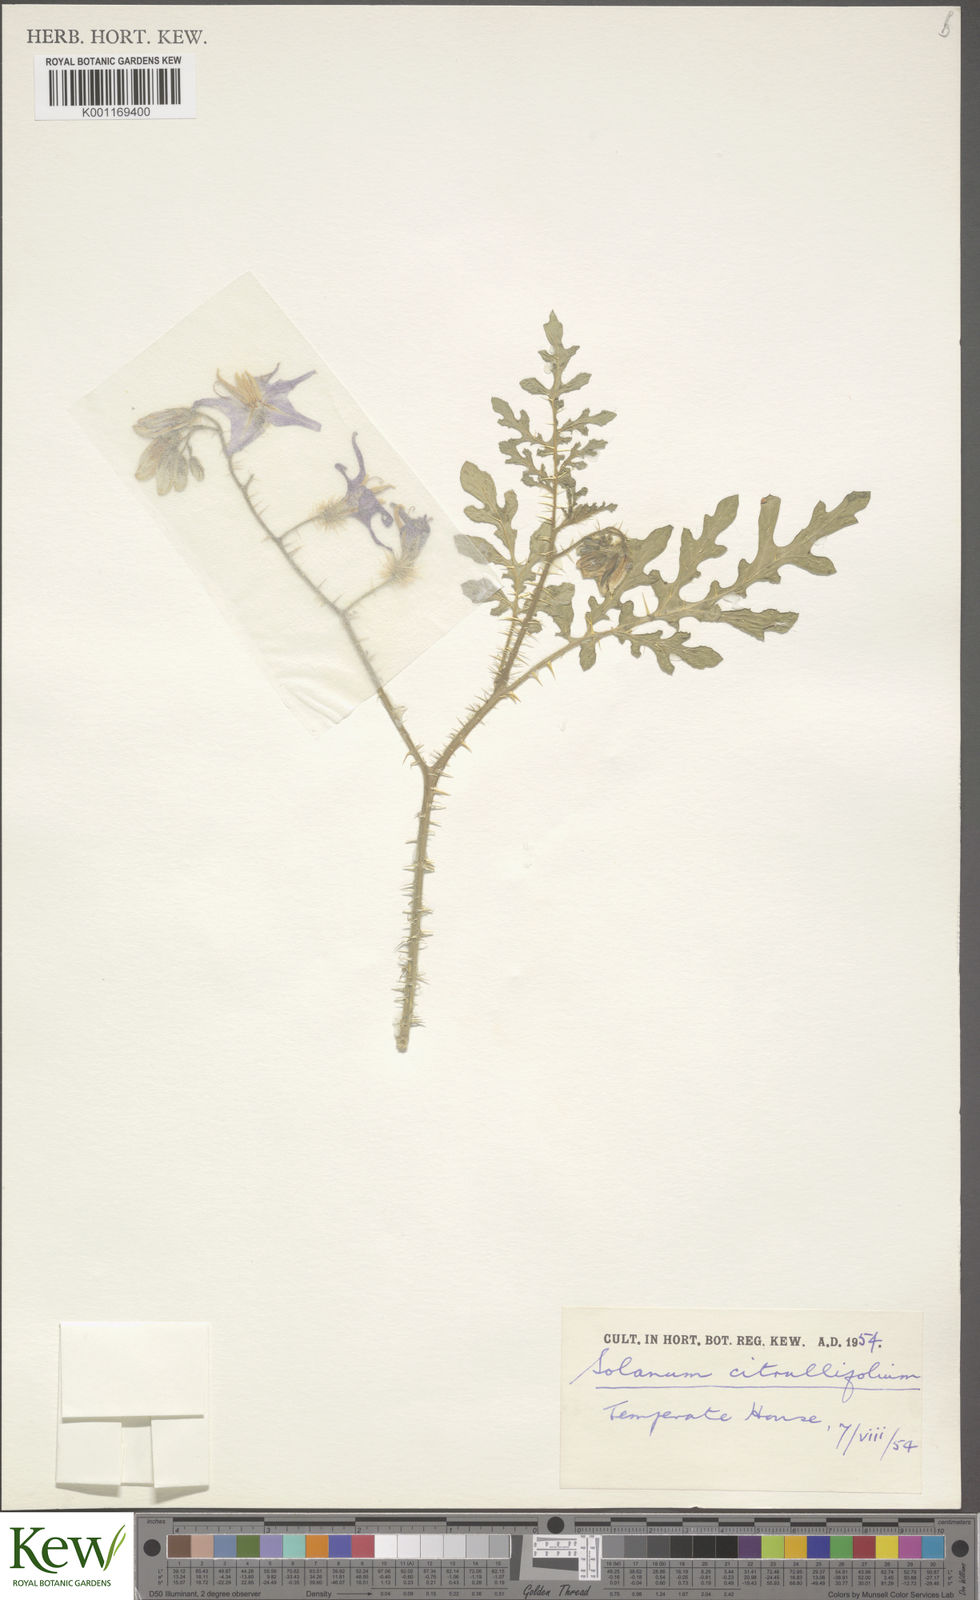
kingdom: Plantae
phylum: Tracheophyta
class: Magnoliopsida
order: Solanales
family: Solanaceae
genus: Solanum
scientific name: Solanum citrullifolium
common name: Melon-leaf nightshade
